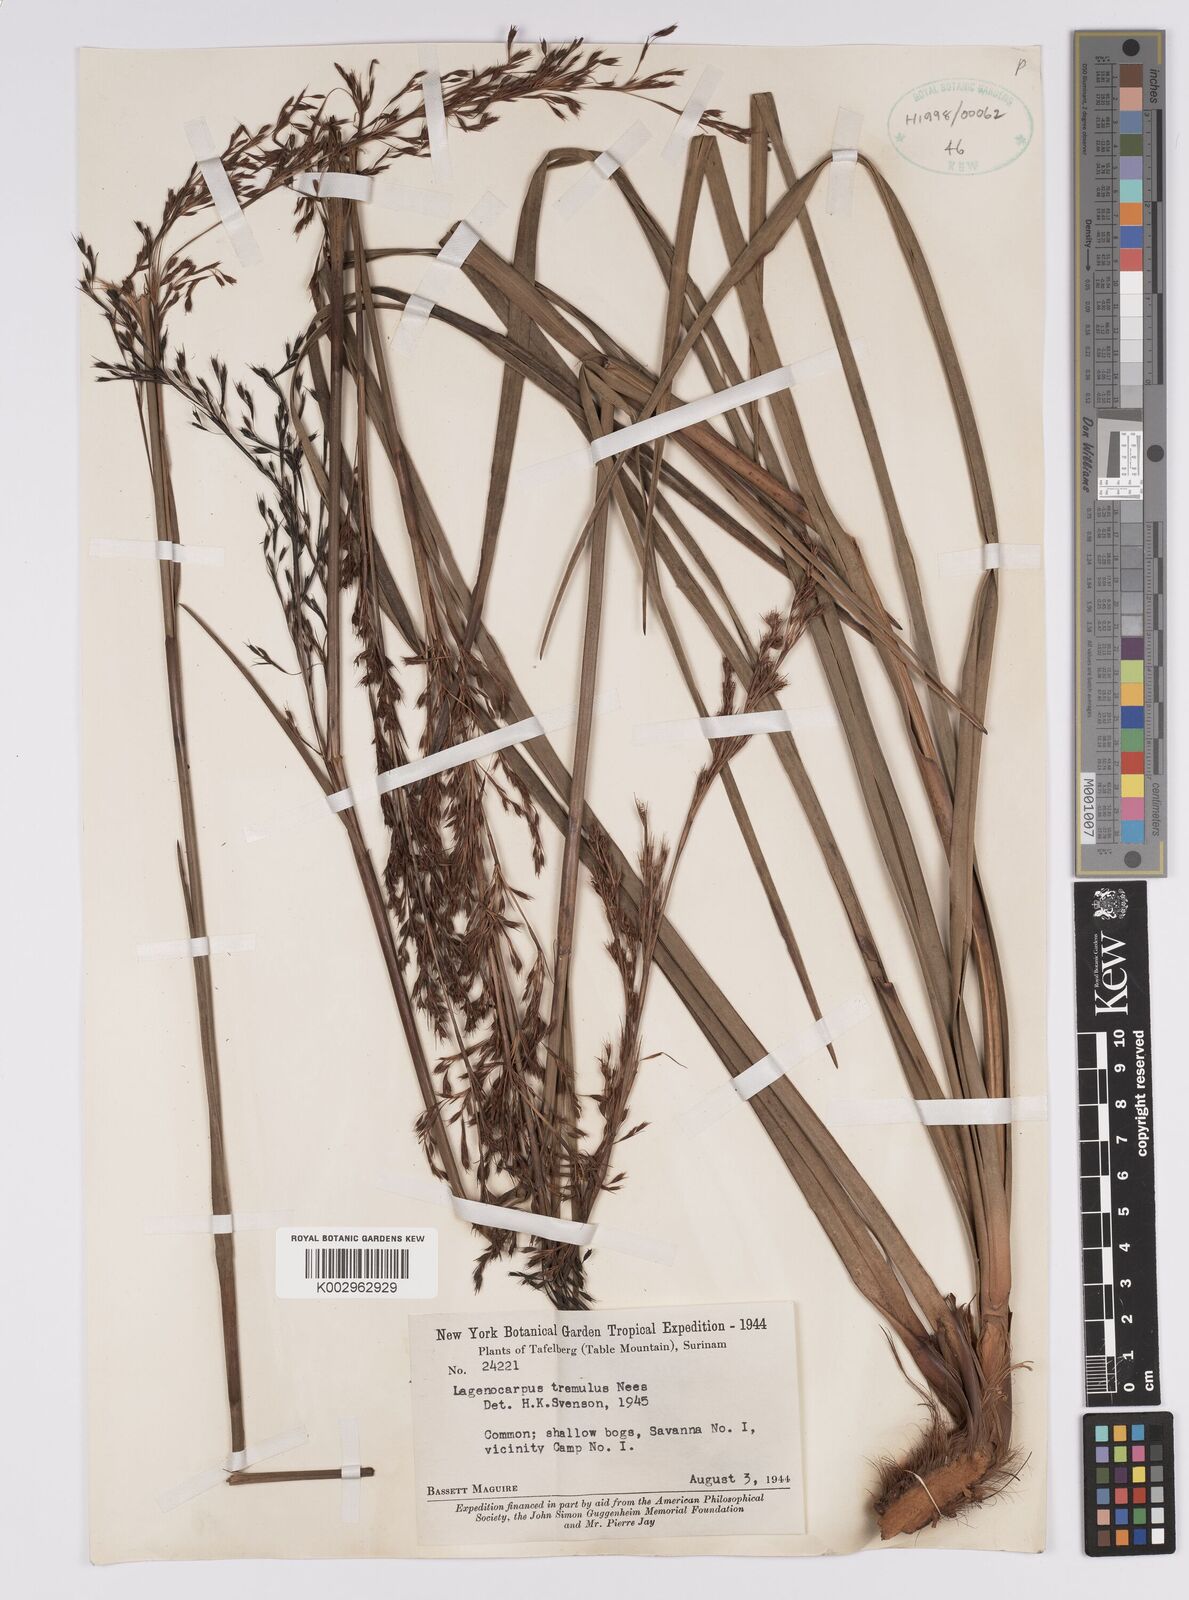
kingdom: Plantae
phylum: Tracheophyta
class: Liliopsida
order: Poales
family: Cyperaceae
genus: Lagenocarpus
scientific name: Lagenocarpus rigidus
